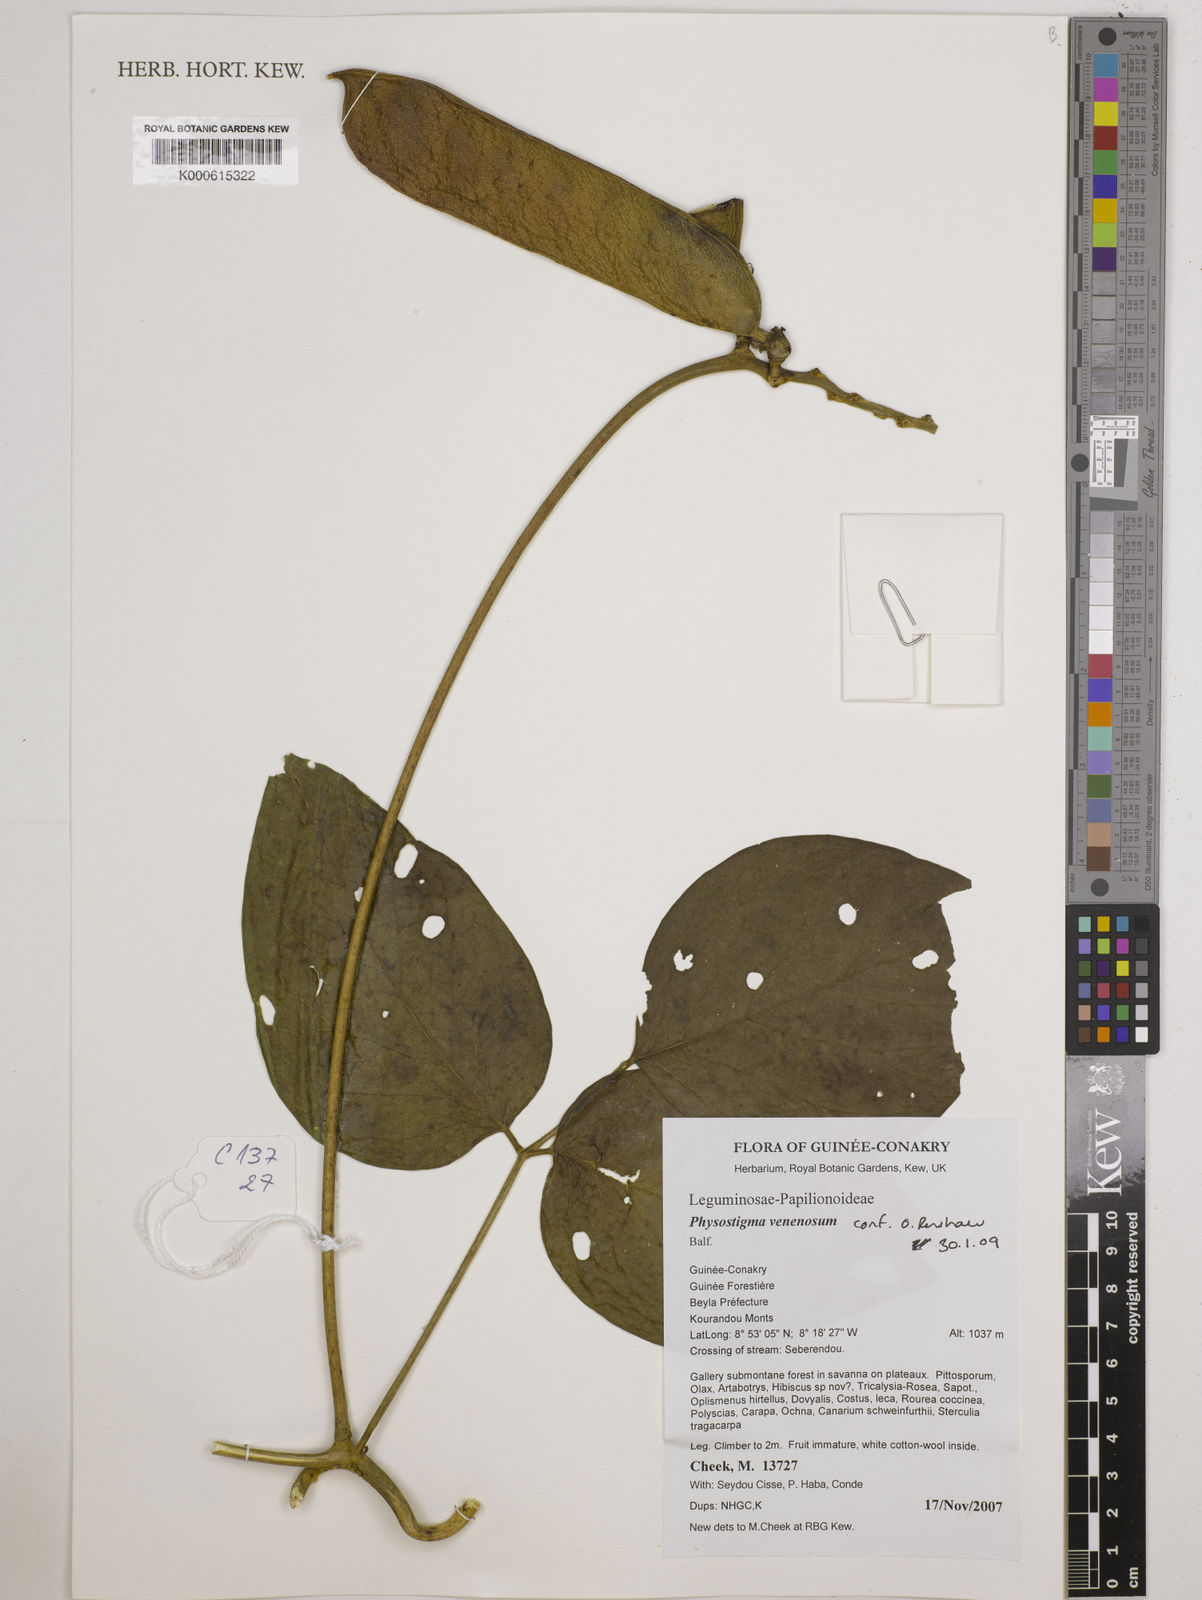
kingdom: Plantae
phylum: Tracheophyta
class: Magnoliopsida
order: Fabales
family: Fabaceae
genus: Physostigma
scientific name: Physostigma venenosum
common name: Calabar-bean
